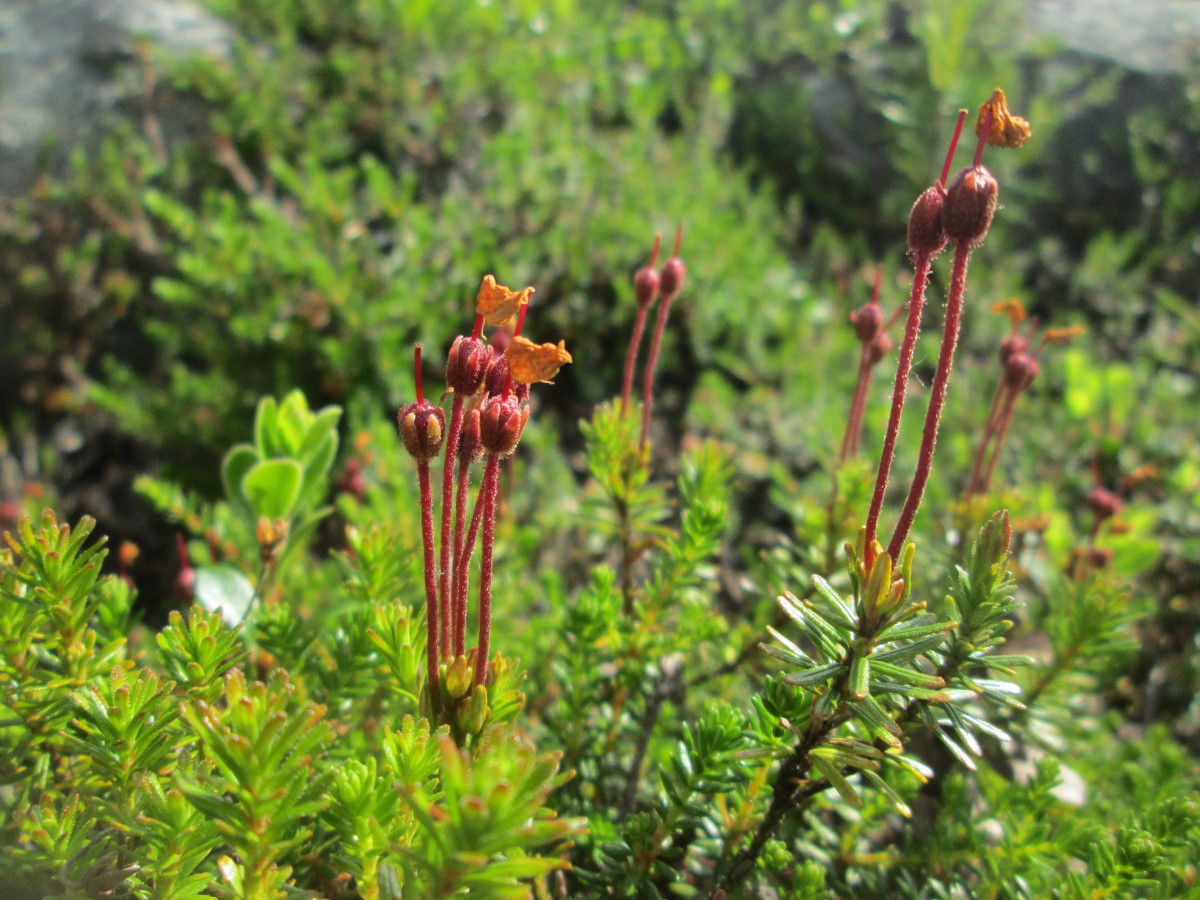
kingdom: Plantae
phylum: Tracheophyta
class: Magnoliopsida
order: Ericales
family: Ericaceae
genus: Phyllodoce
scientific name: Phyllodoce caerulea
